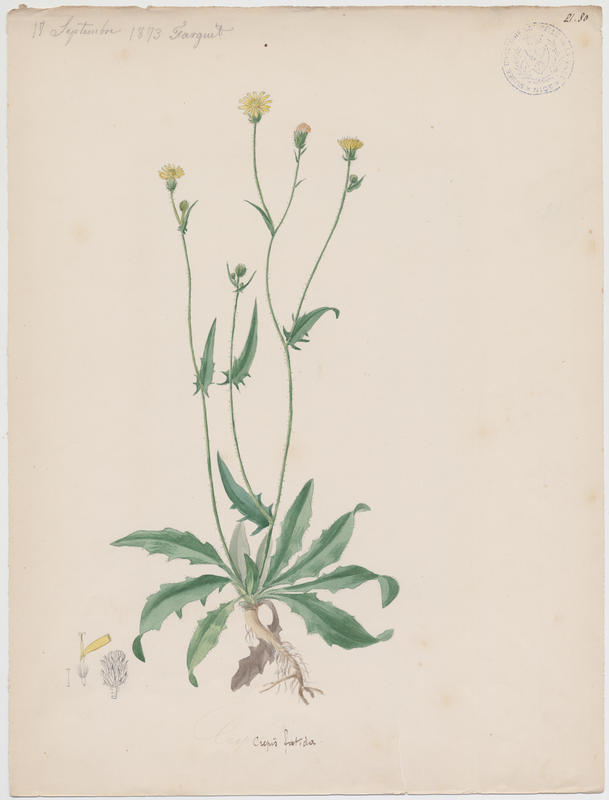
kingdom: Plantae
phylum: Tracheophyta
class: Magnoliopsida
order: Asterales
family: Asteraceae
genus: Crepis
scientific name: Crepis foetida
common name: Stinking hawk's-beard
